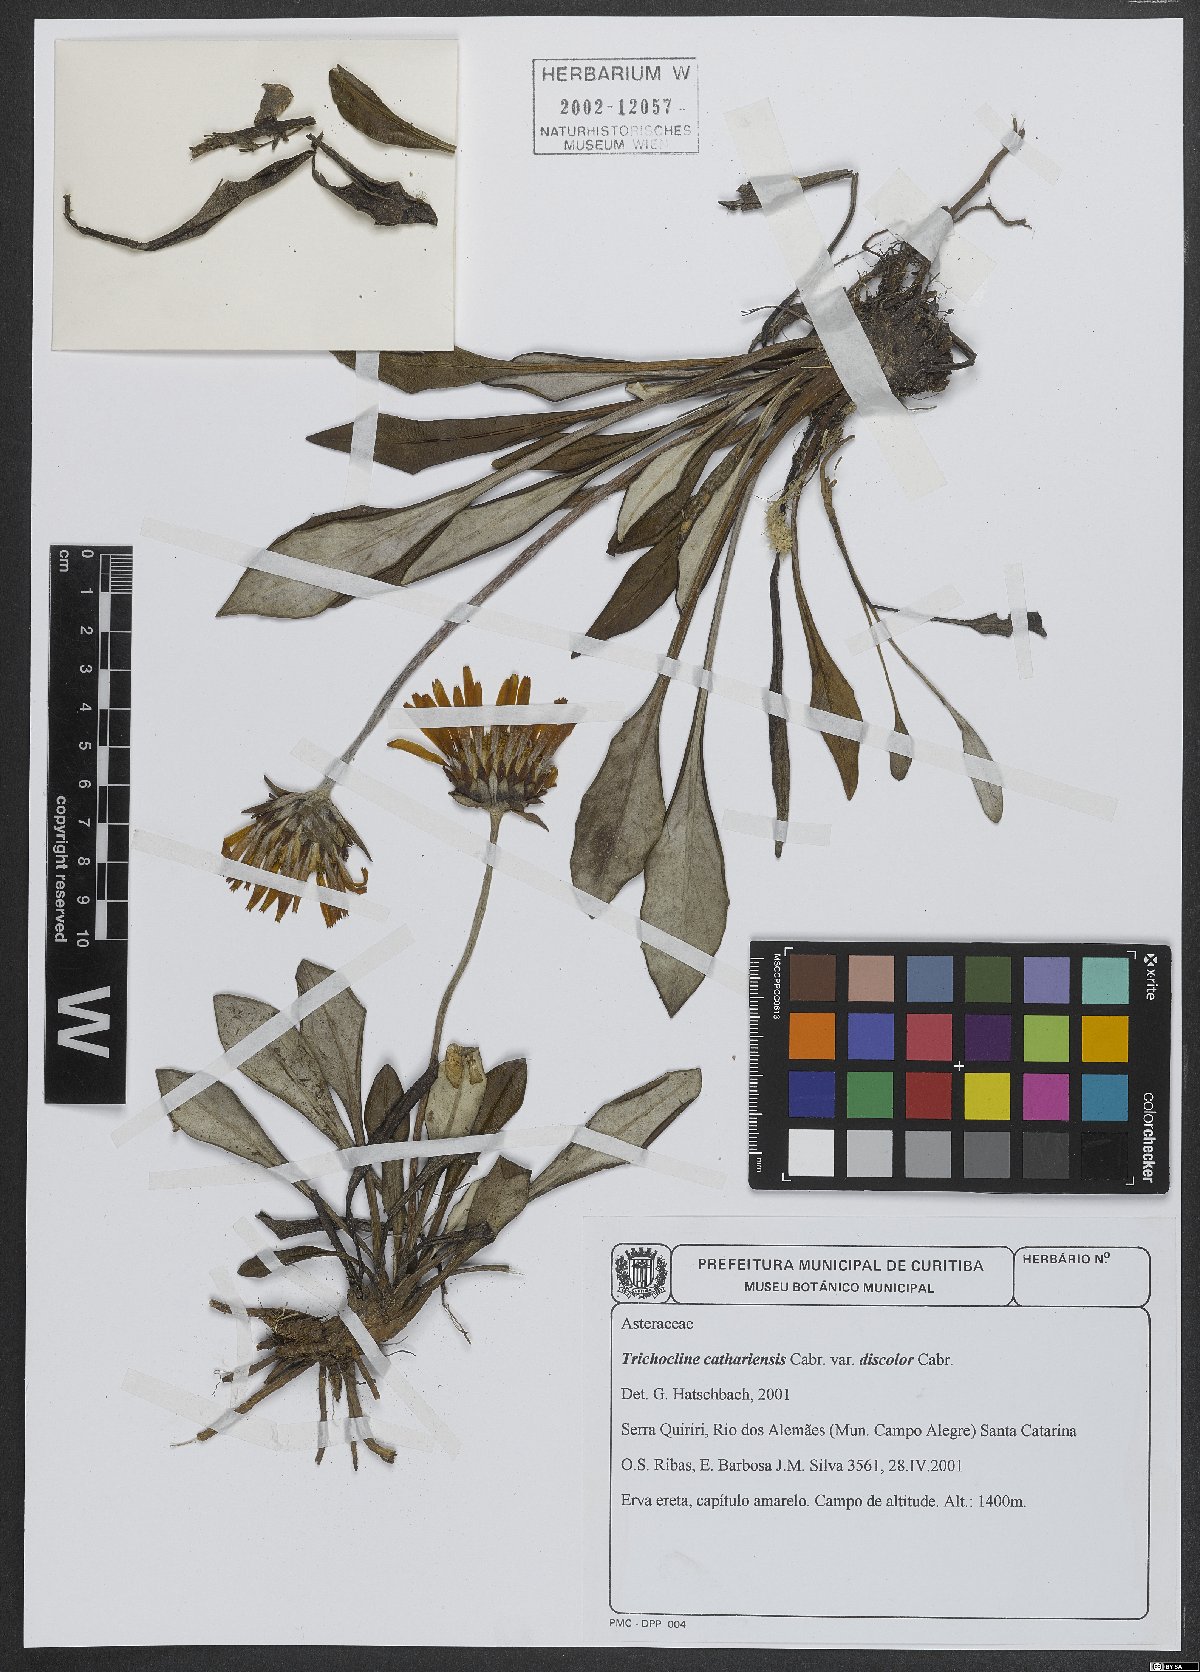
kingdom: Plantae
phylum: Tracheophyta
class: Magnoliopsida
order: Asterales
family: Asteraceae
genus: Trichocline
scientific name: Trichocline catharinensis
